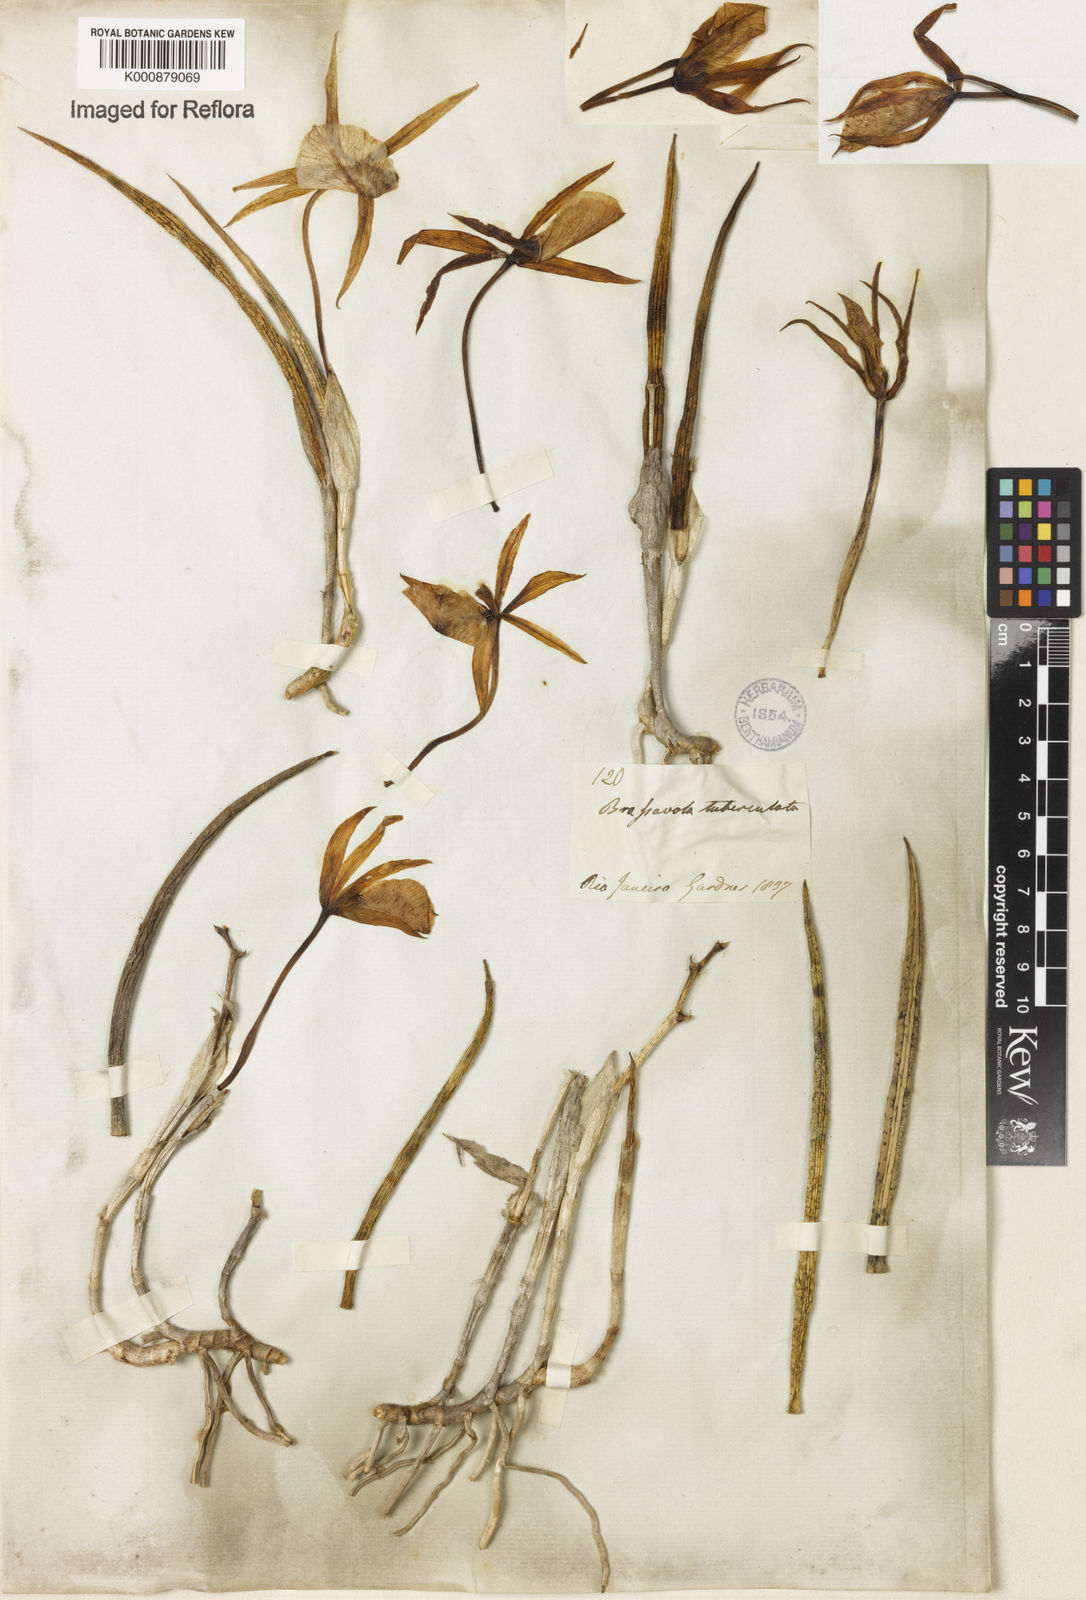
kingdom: Plantae
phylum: Tracheophyta
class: Liliopsida
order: Asparagales
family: Orchidaceae
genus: Brassavola
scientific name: Brassavola tuberculata
